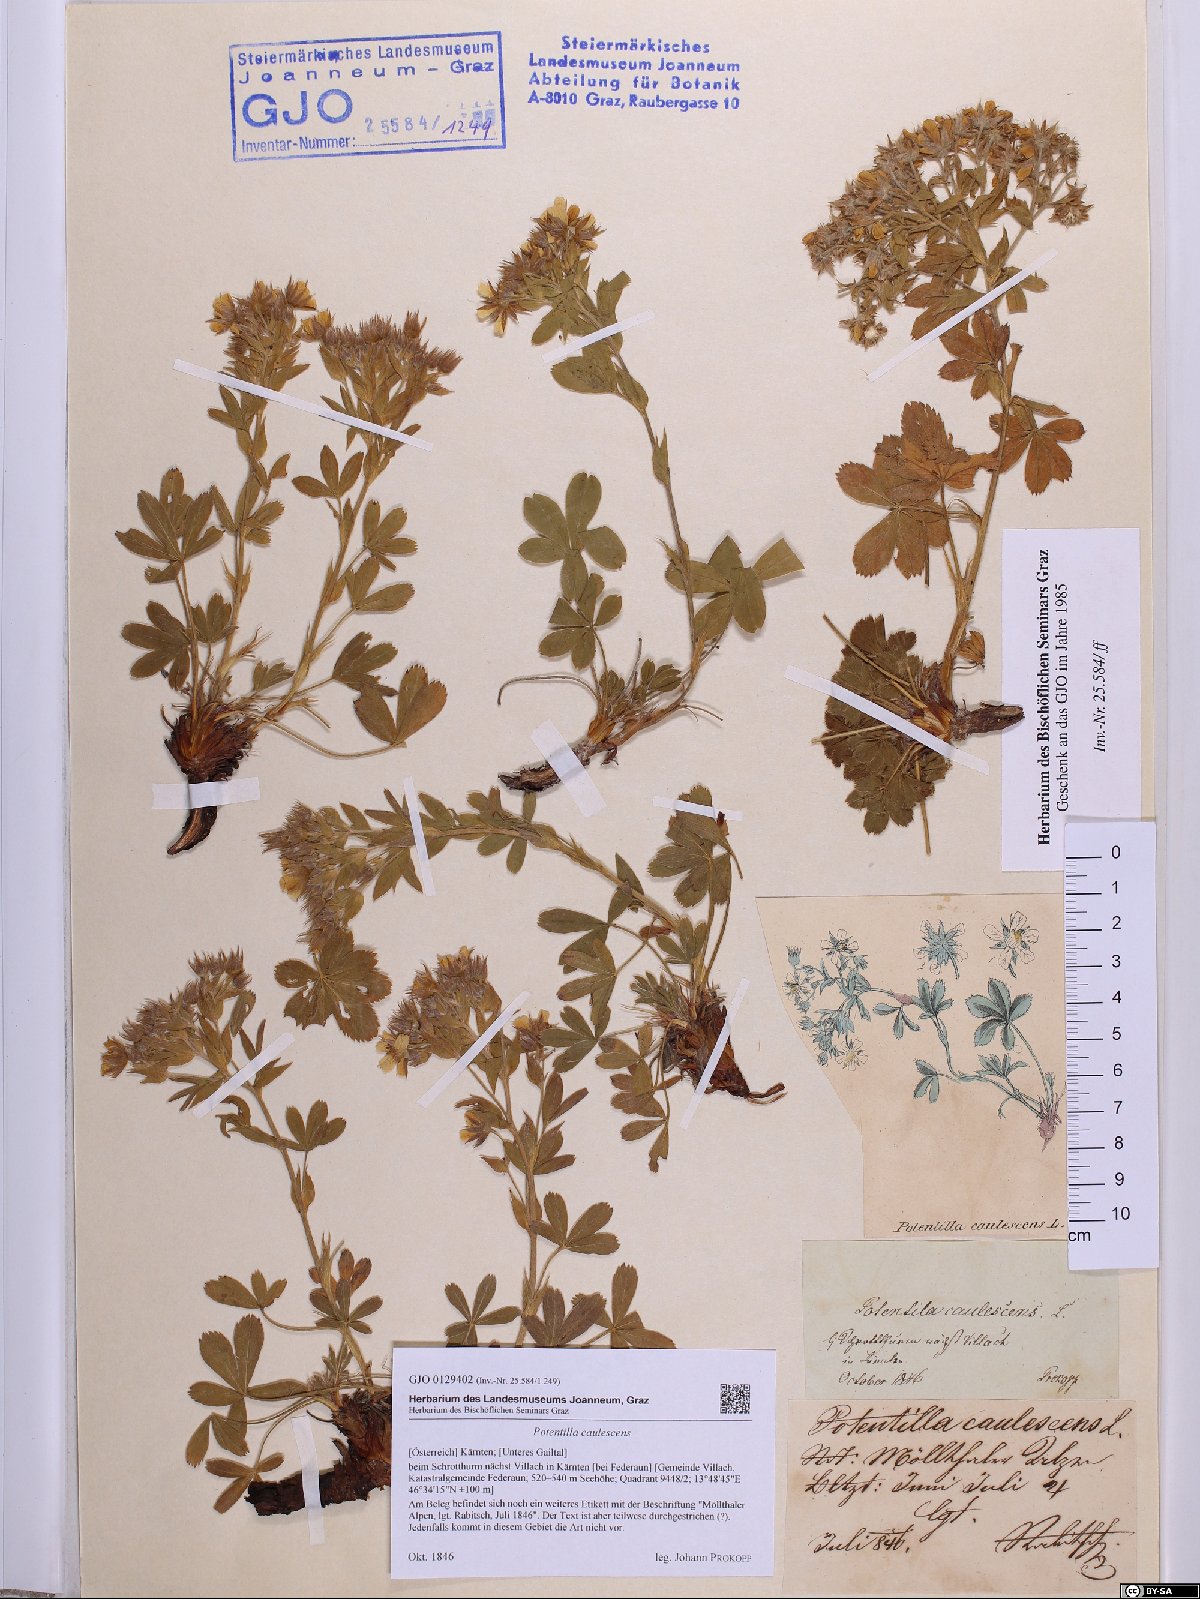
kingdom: Plantae
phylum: Tracheophyta
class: Magnoliopsida
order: Rosales
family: Rosaceae
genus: Potentilla
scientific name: Potentilla caulescens
